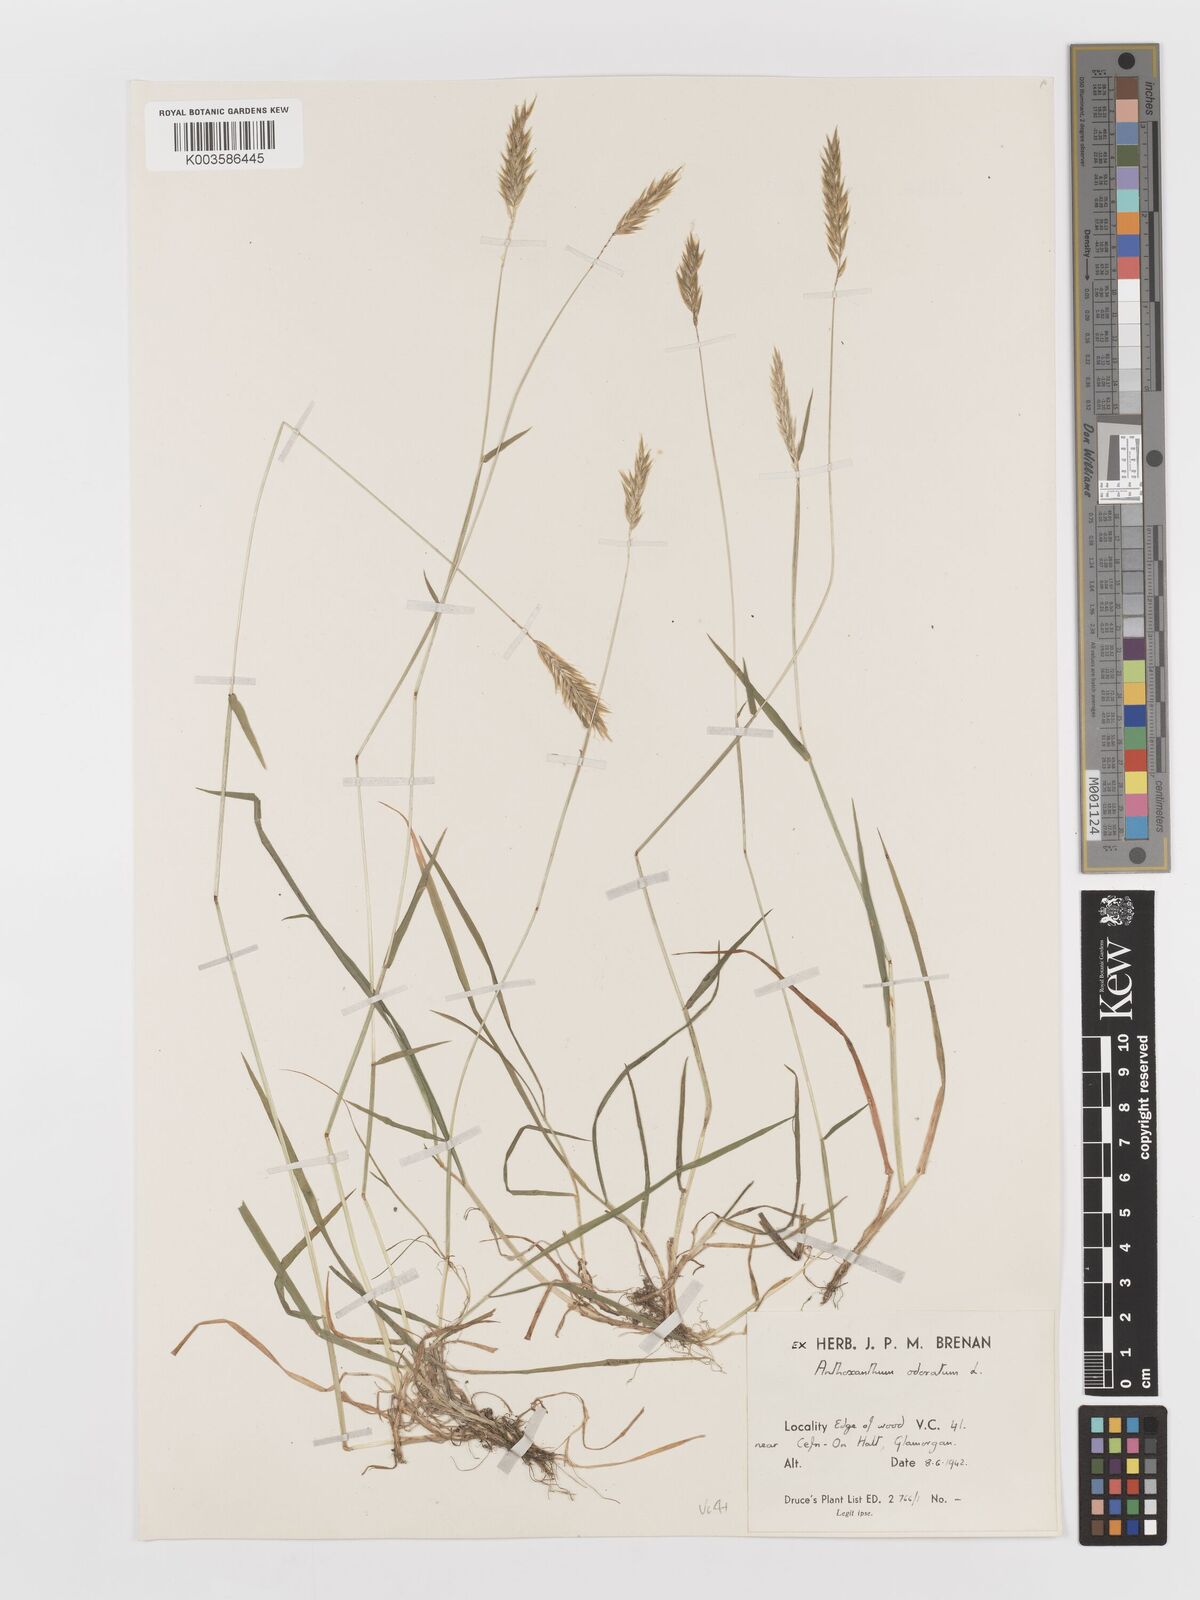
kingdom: Plantae
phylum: Tracheophyta
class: Liliopsida
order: Poales
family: Poaceae
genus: Anthoxanthum
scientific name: Anthoxanthum odoratum
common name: Sweet vernalgrass
